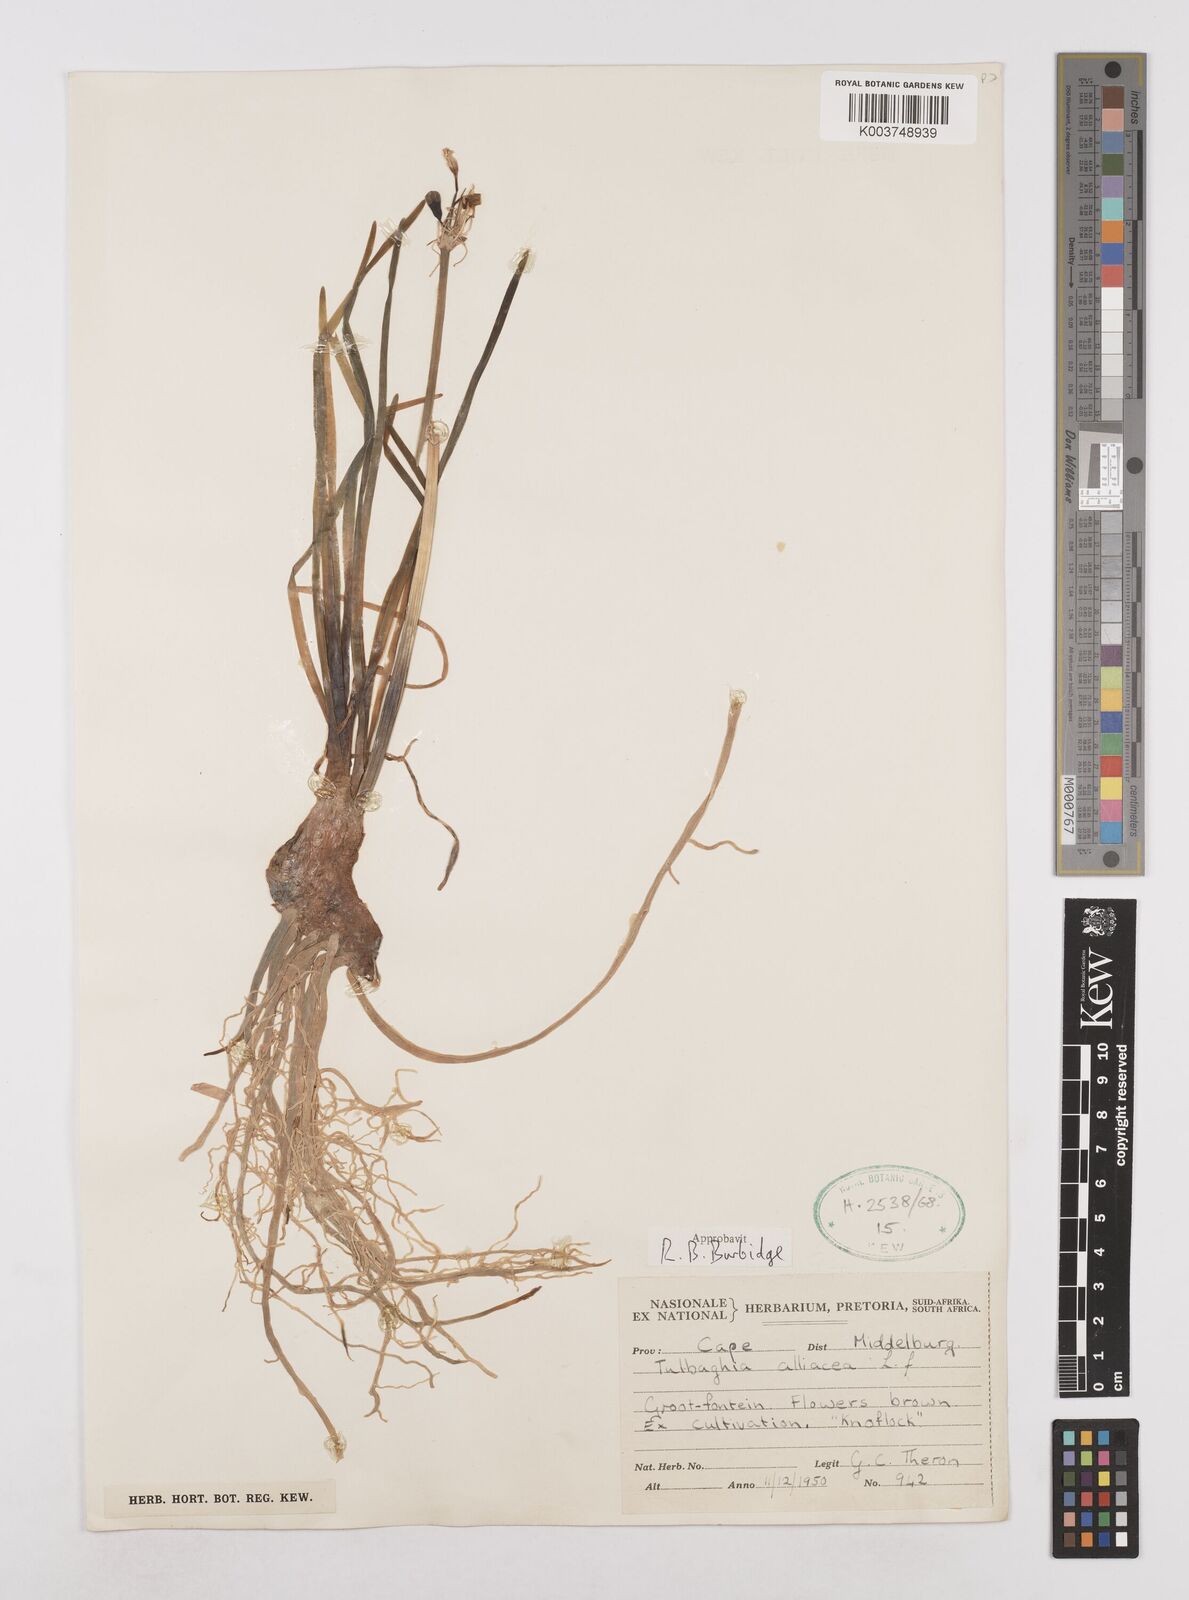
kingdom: Plantae
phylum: Tracheophyta
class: Liliopsida
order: Asparagales
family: Amaryllidaceae
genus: Tulbaghia
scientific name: Tulbaghia alliacea
